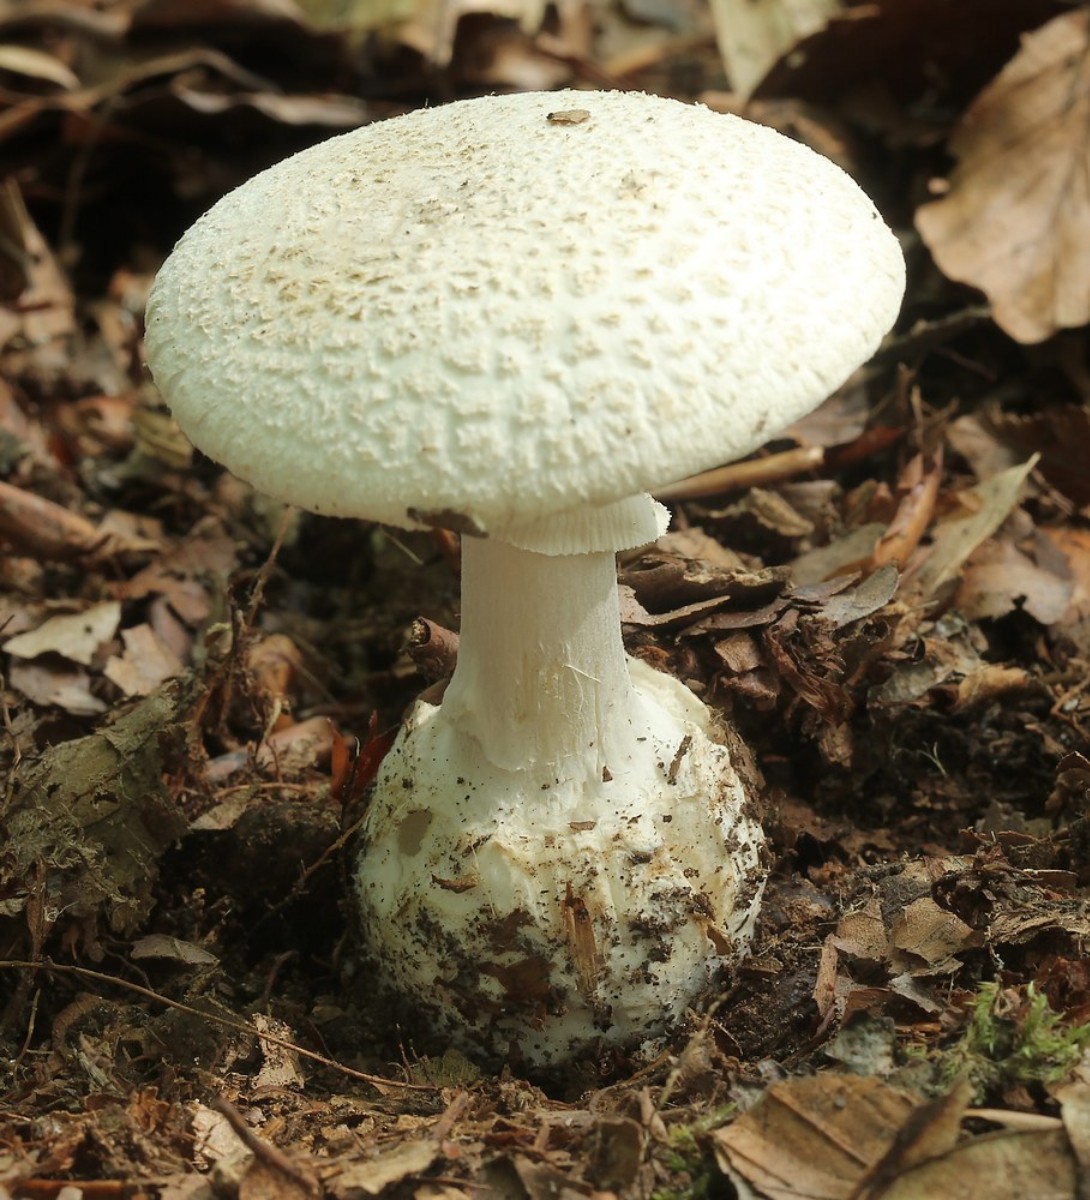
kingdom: Fungi
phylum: Basidiomycota
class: Agaricomycetes
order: Agaricales
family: Amanitaceae
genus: Amanita
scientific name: Amanita citrina
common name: kugleknoldet fluesvamp
